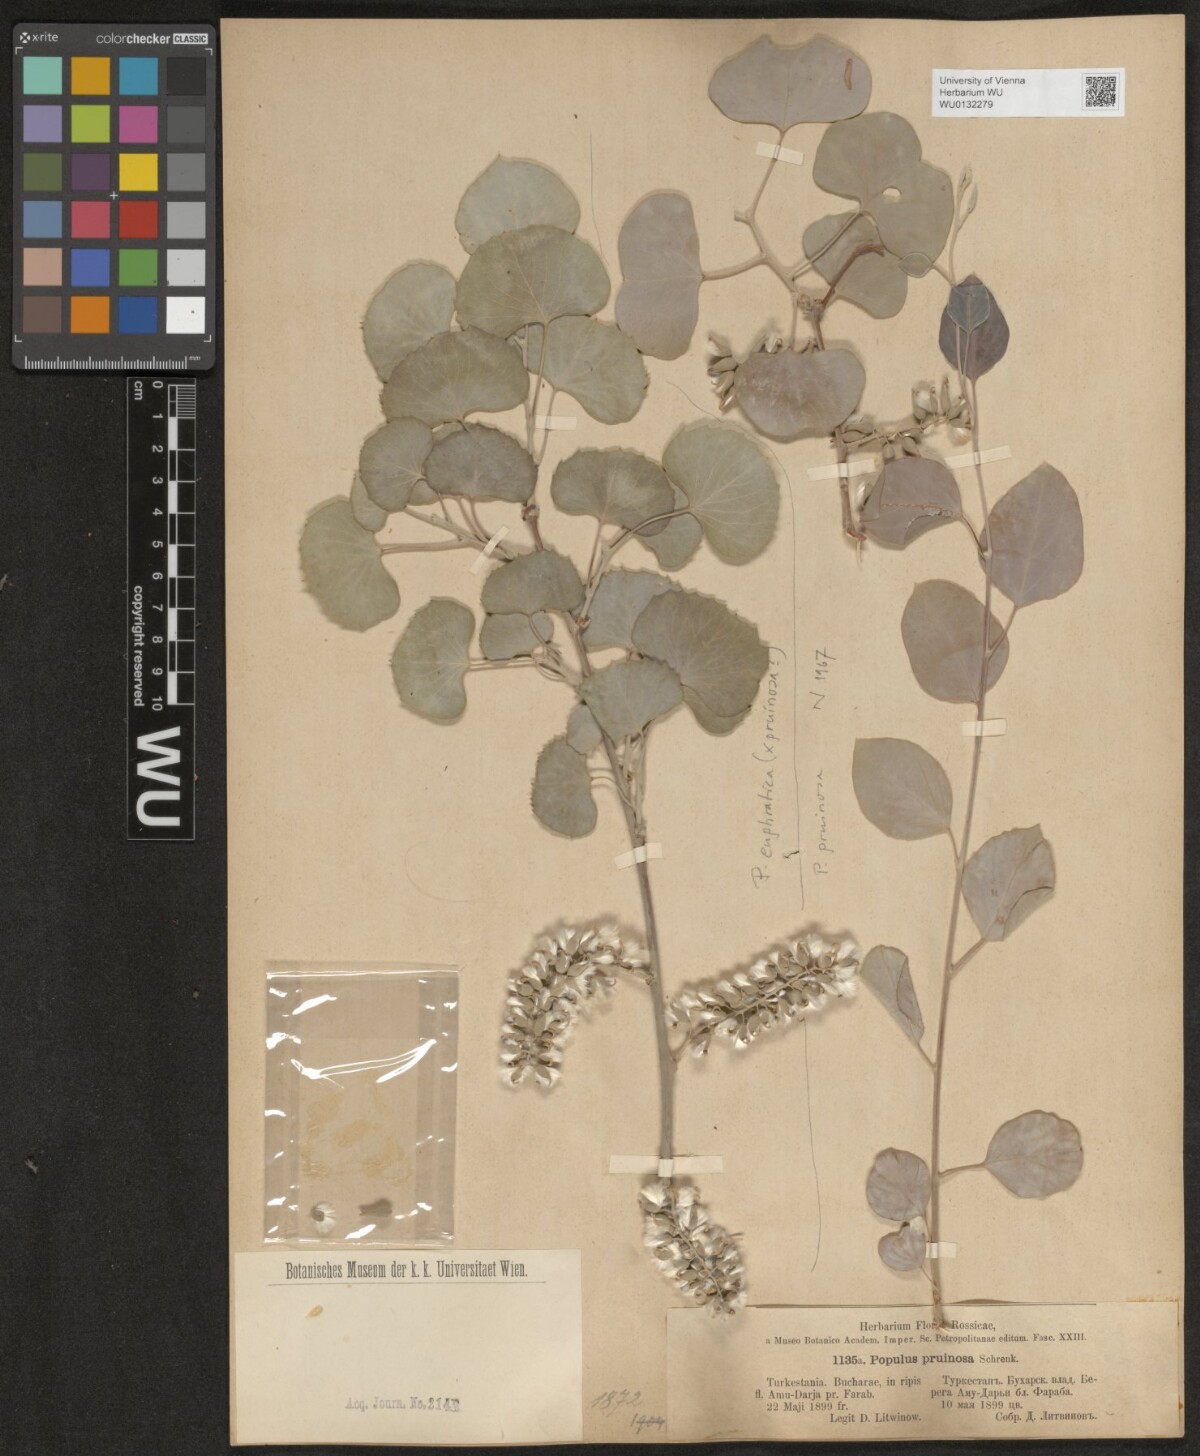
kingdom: Plantae
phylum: Tracheophyta
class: Magnoliopsida
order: Malpighiales
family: Salicaceae
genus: Populus
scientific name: Populus pruinosa
